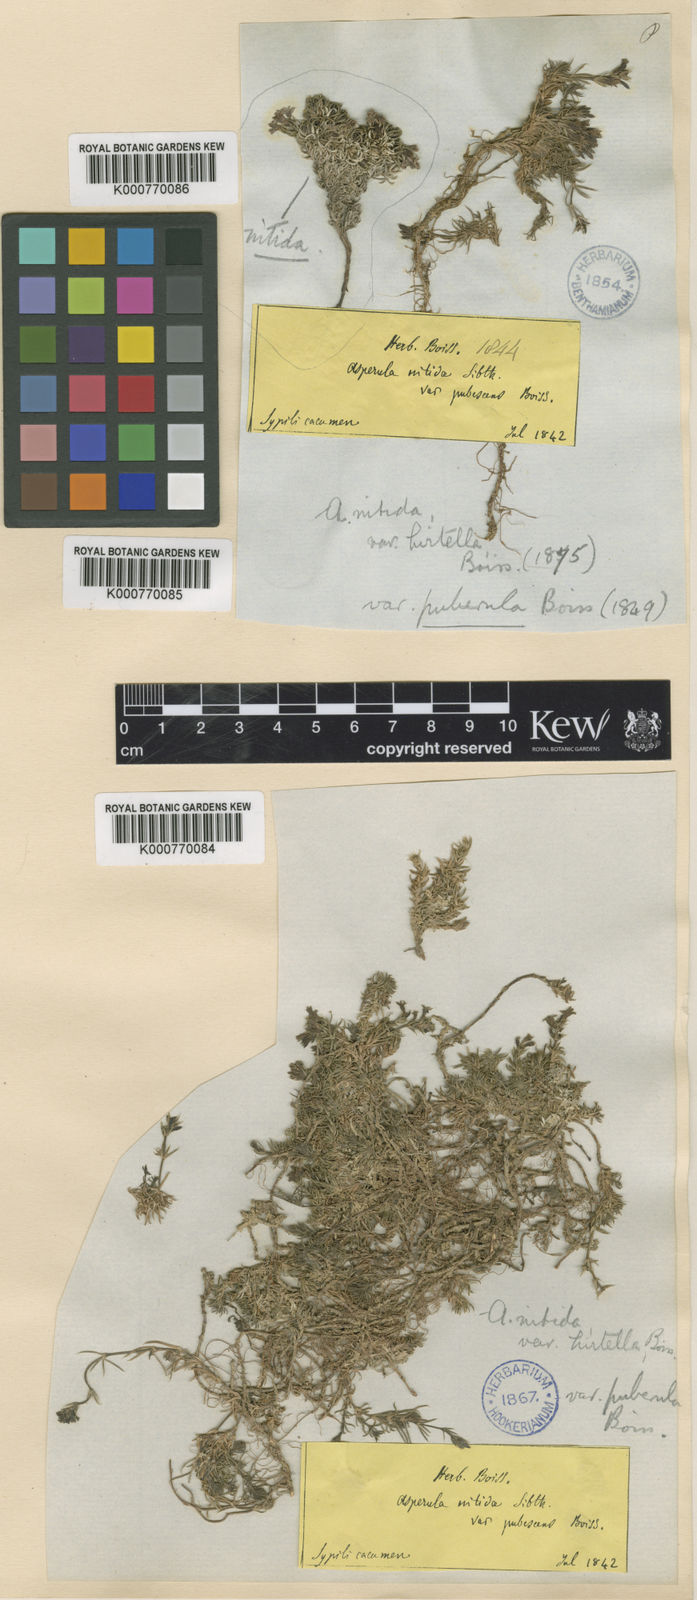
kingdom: Plantae
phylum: Tracheophyta
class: Magnoliopsida
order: Gentianales
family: Rubiaceae
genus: Cynanchica
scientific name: Cynanchica nitida
